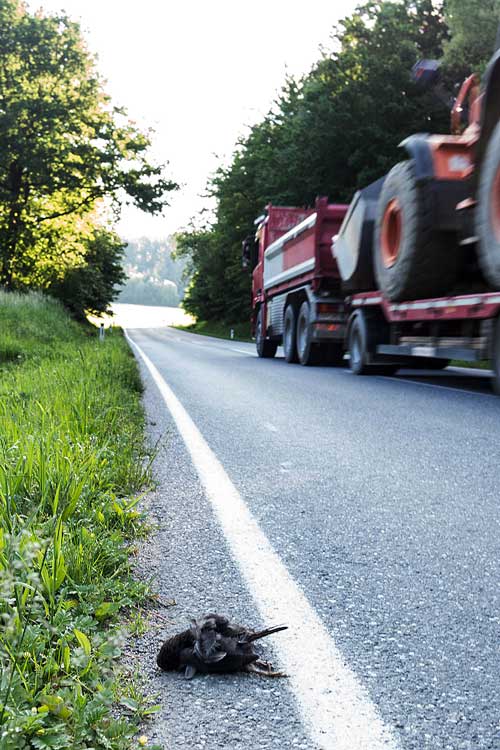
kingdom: Animalia
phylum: Chordata
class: Aves
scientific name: Aves
